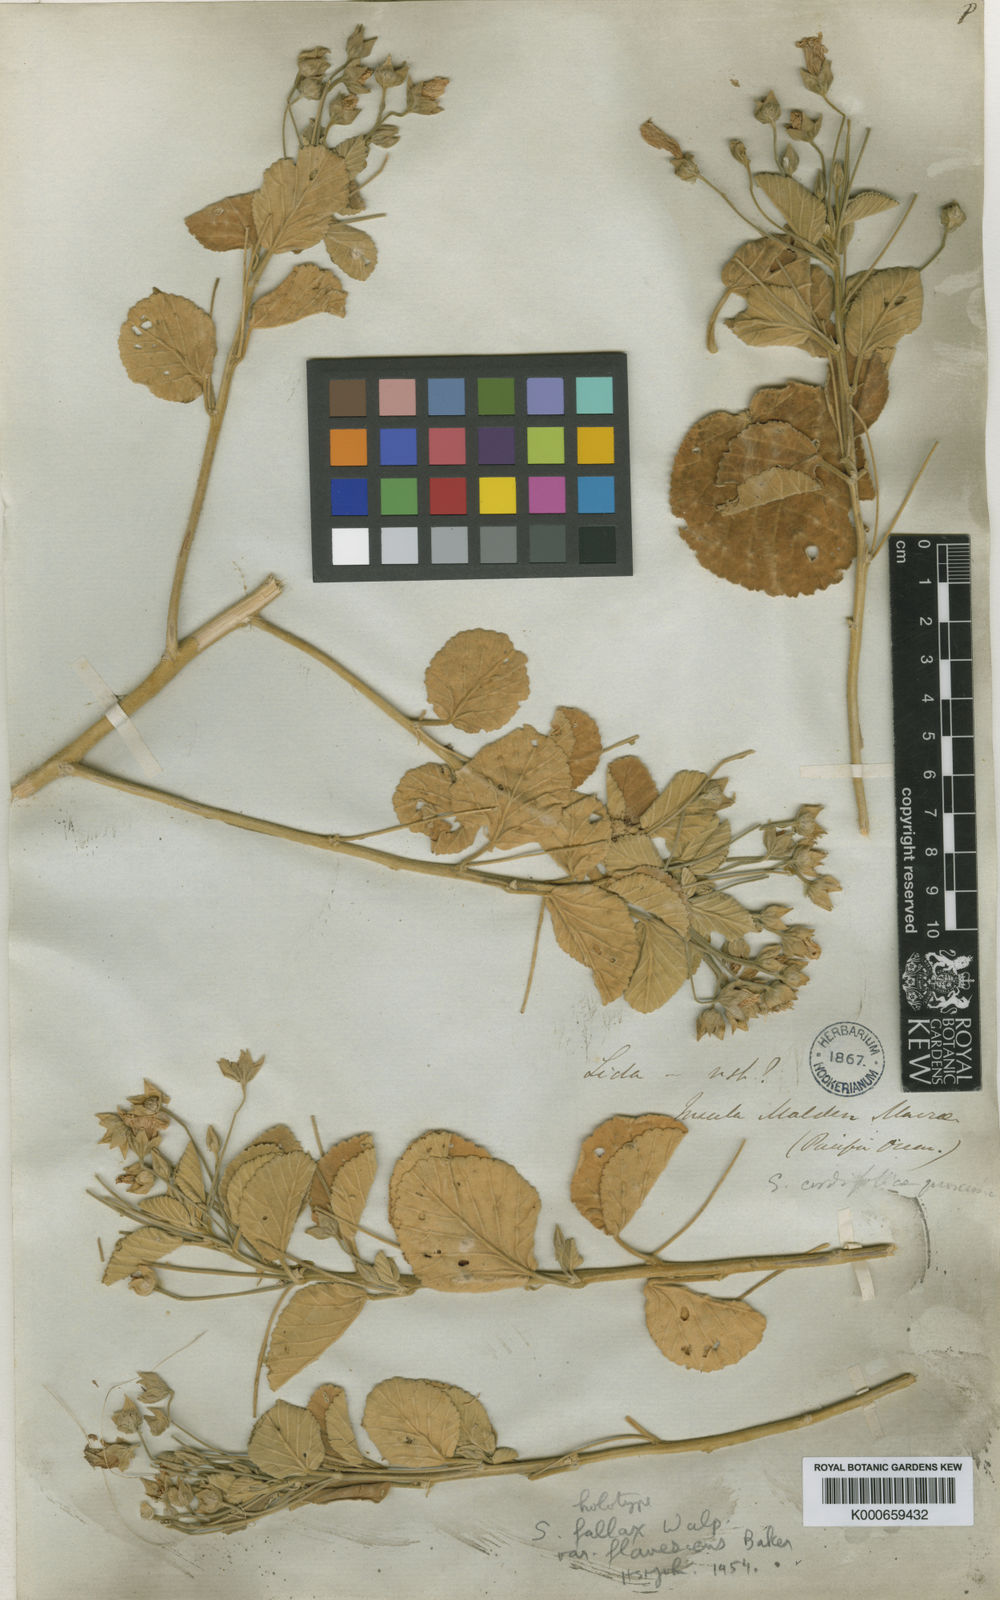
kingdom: Plantae
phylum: Tracheophyta
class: Magnoliopsida
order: Malvales
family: Malvaceae
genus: Sida
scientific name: Sida fallax
